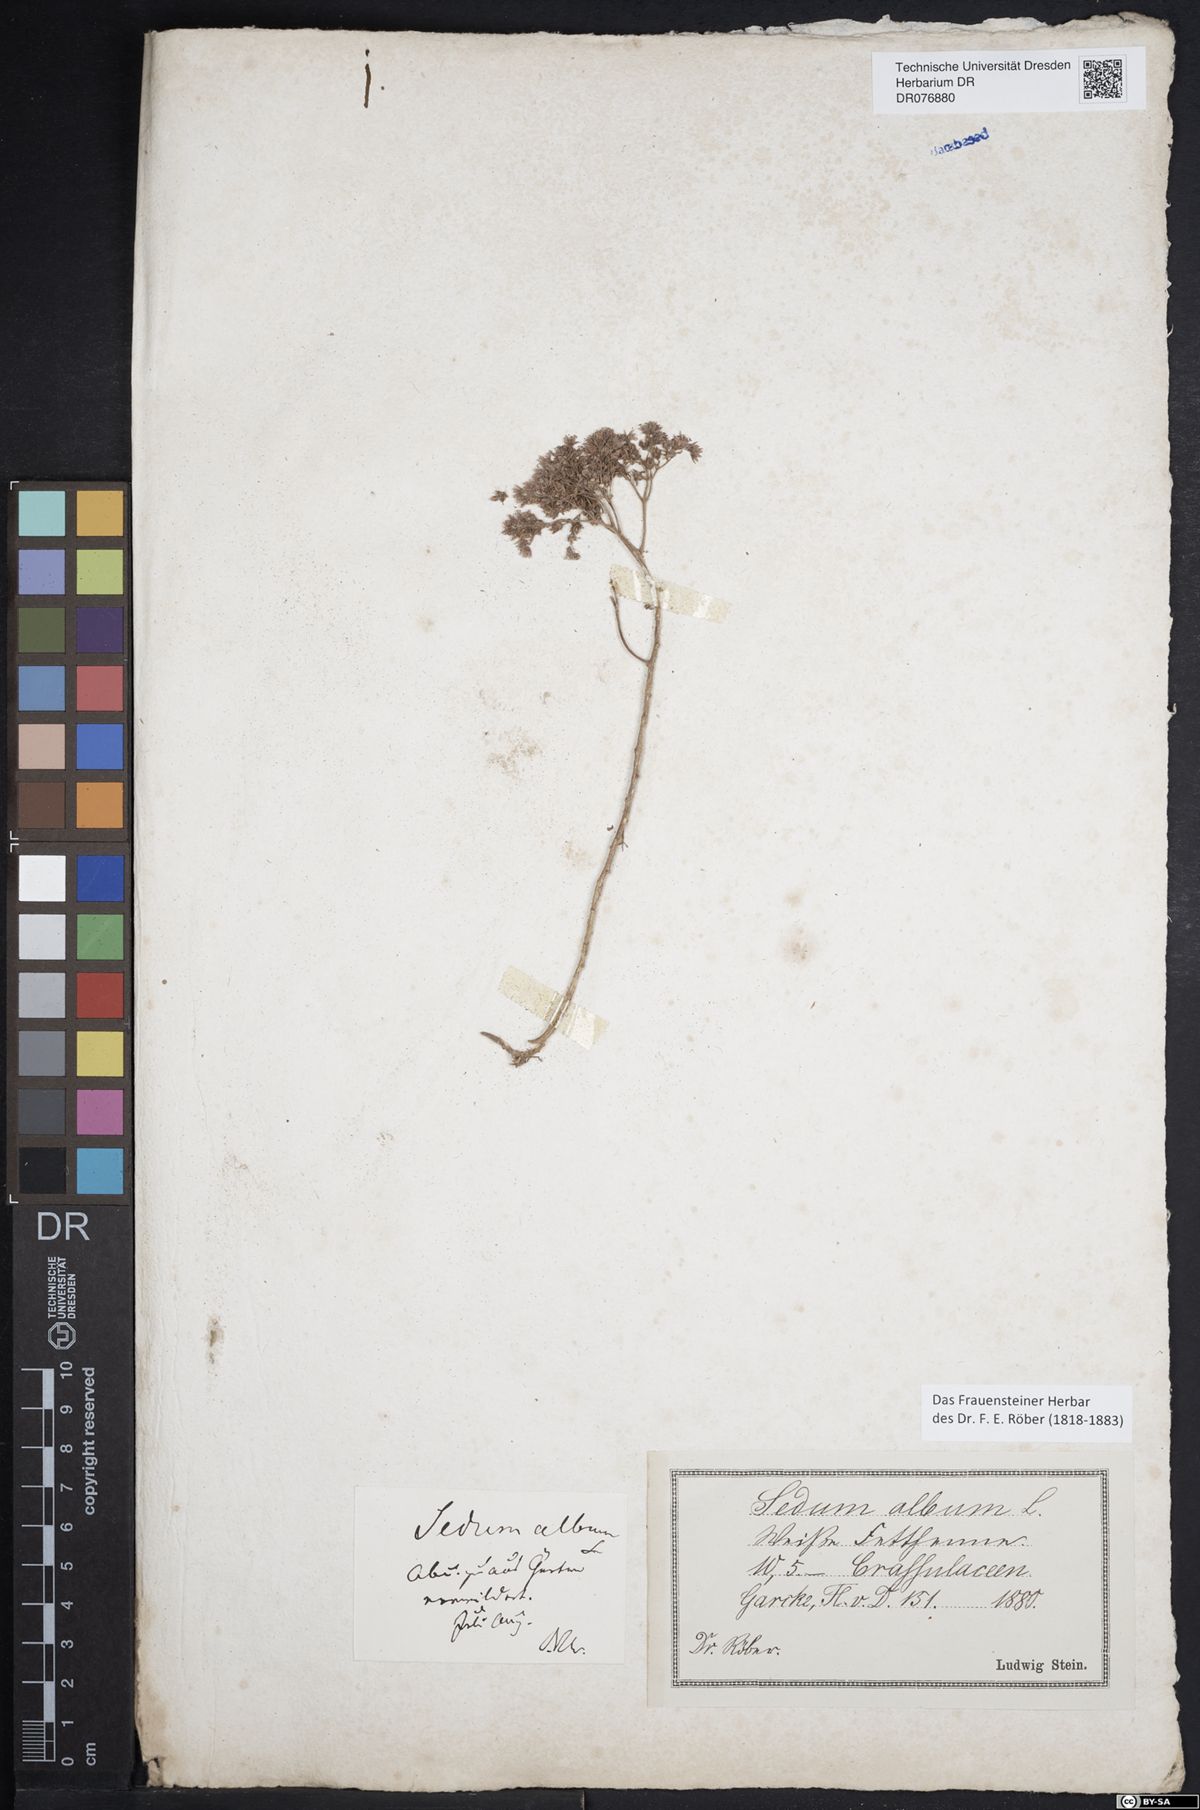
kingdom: Plantae
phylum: Tracheophyta
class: Magnoliopsida
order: Saxifragales
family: Crassulaceae
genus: Sedum
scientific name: Sedum album
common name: White stonecrop
